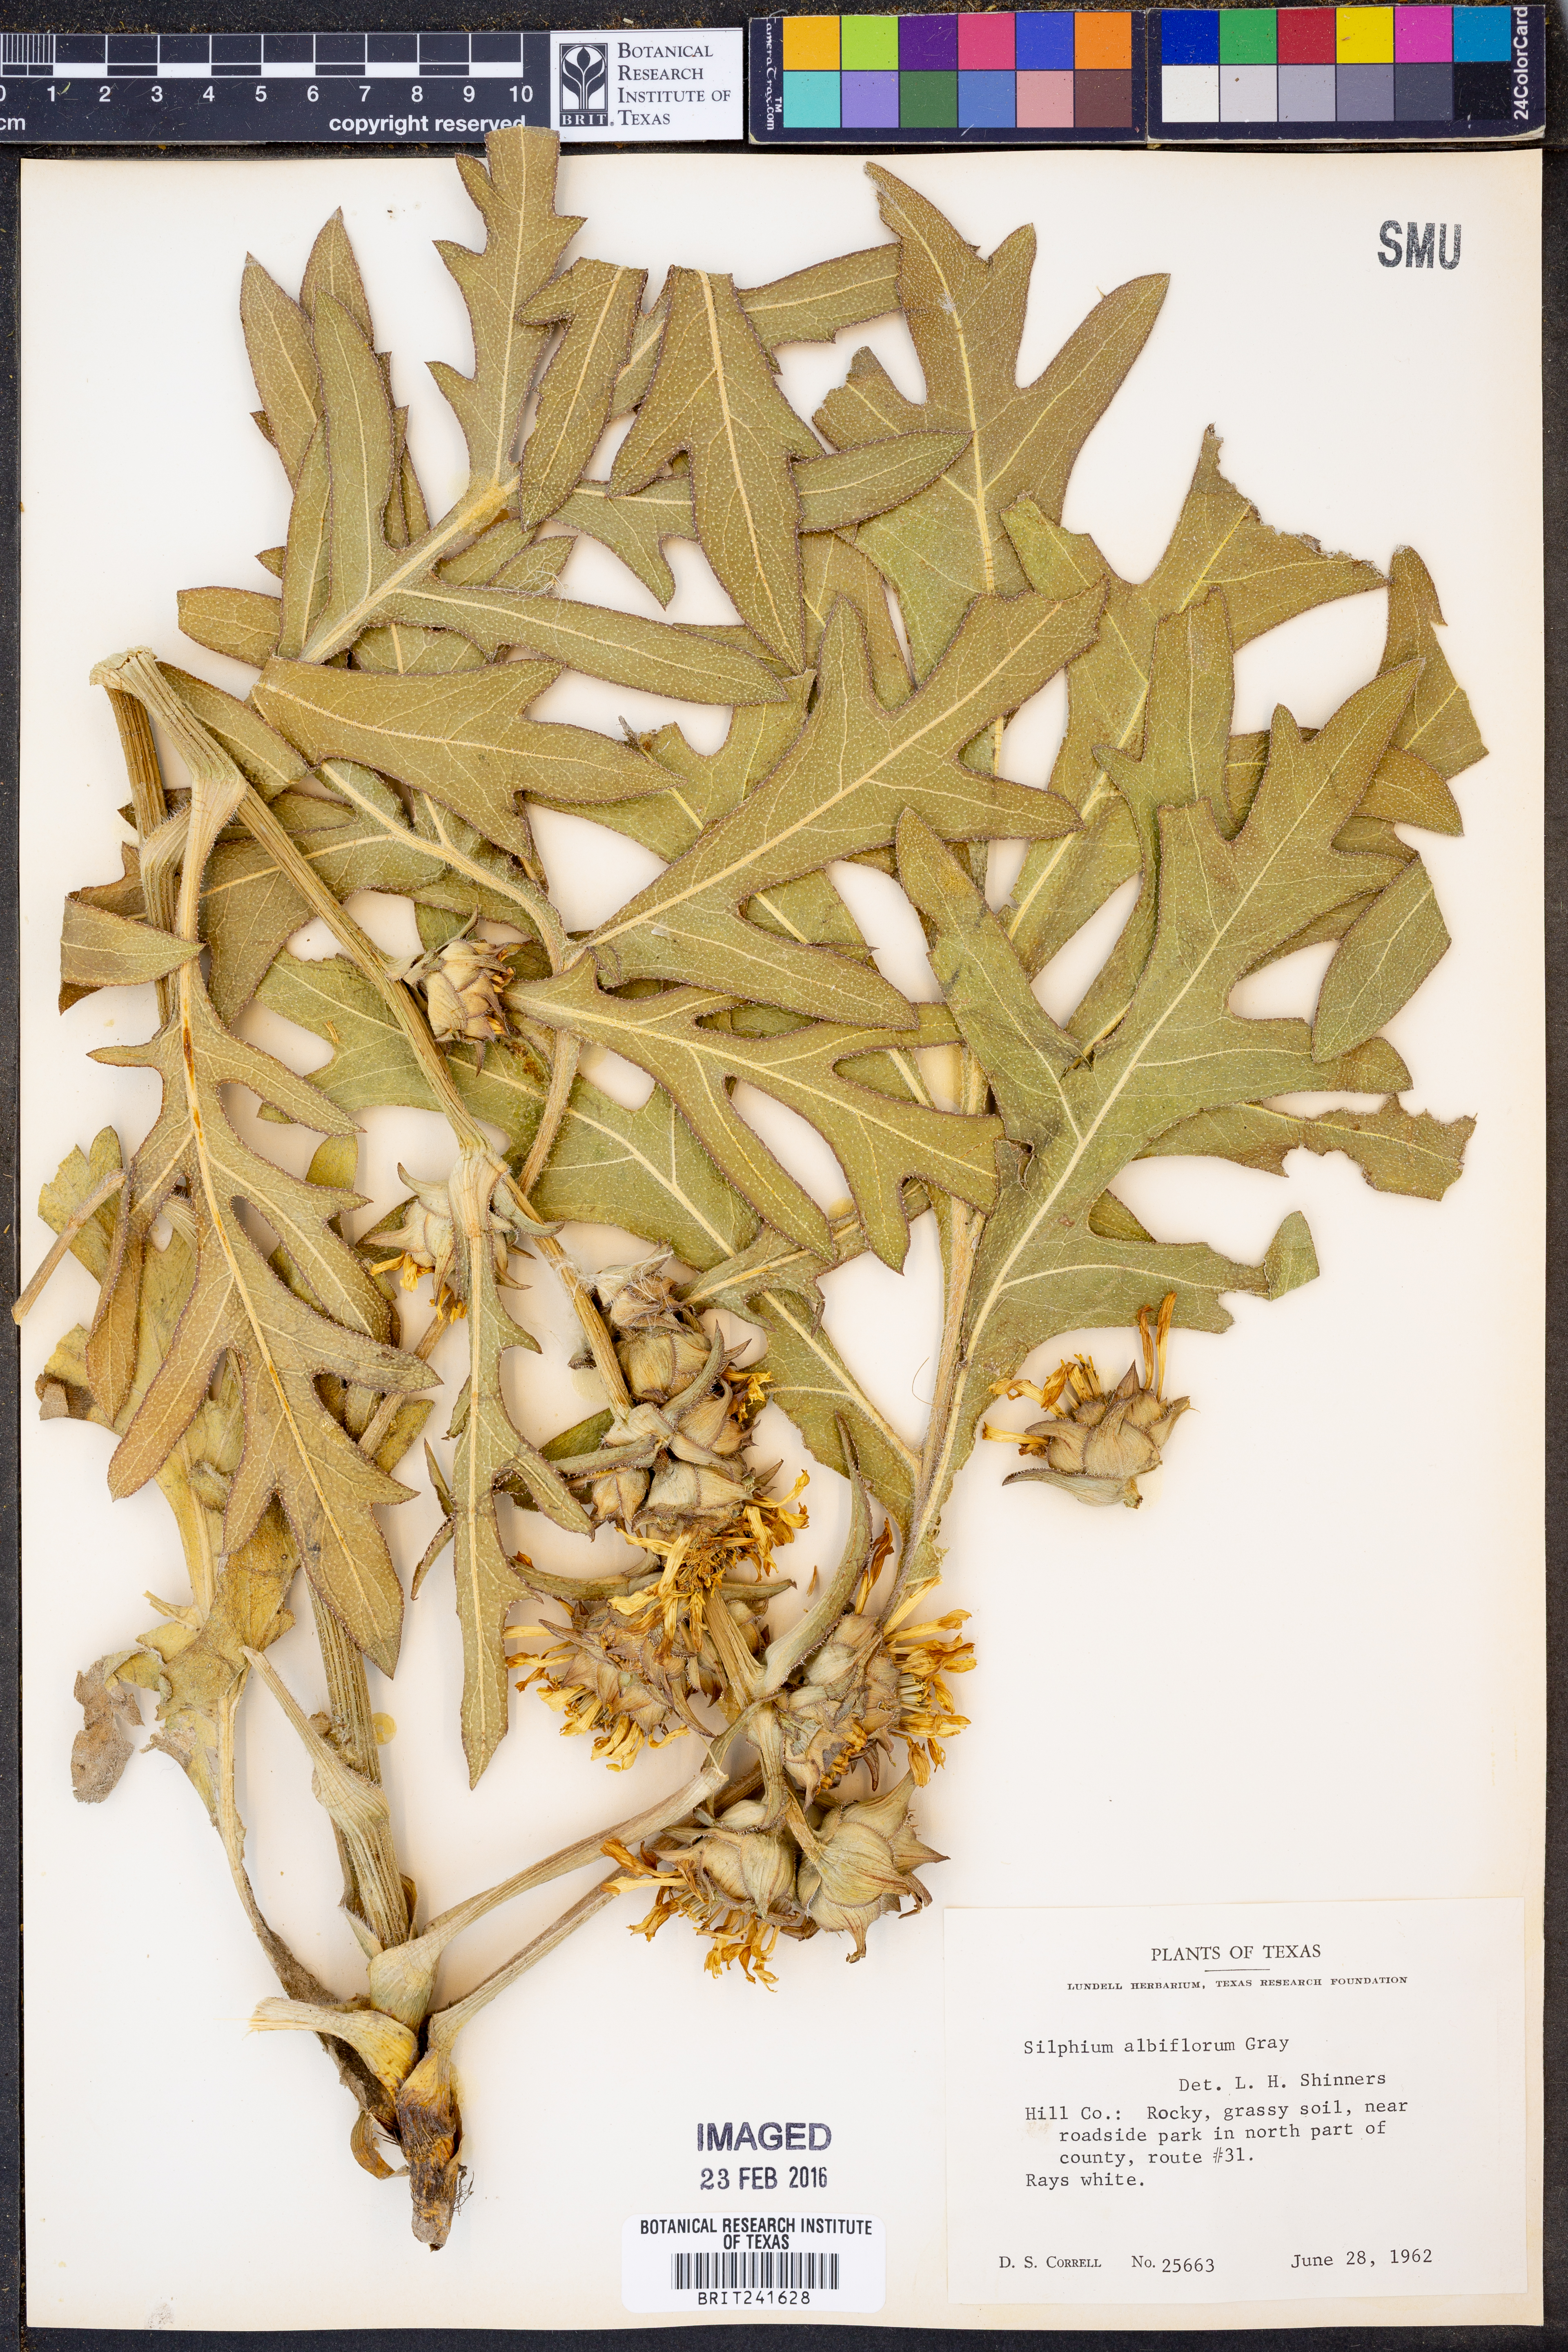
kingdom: Plantae
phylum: Tracheophyta
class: Magnoliopsida
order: Asterales
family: Asteraceae
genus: Silphium
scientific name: Silphium albiflorum
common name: White rosinweed
